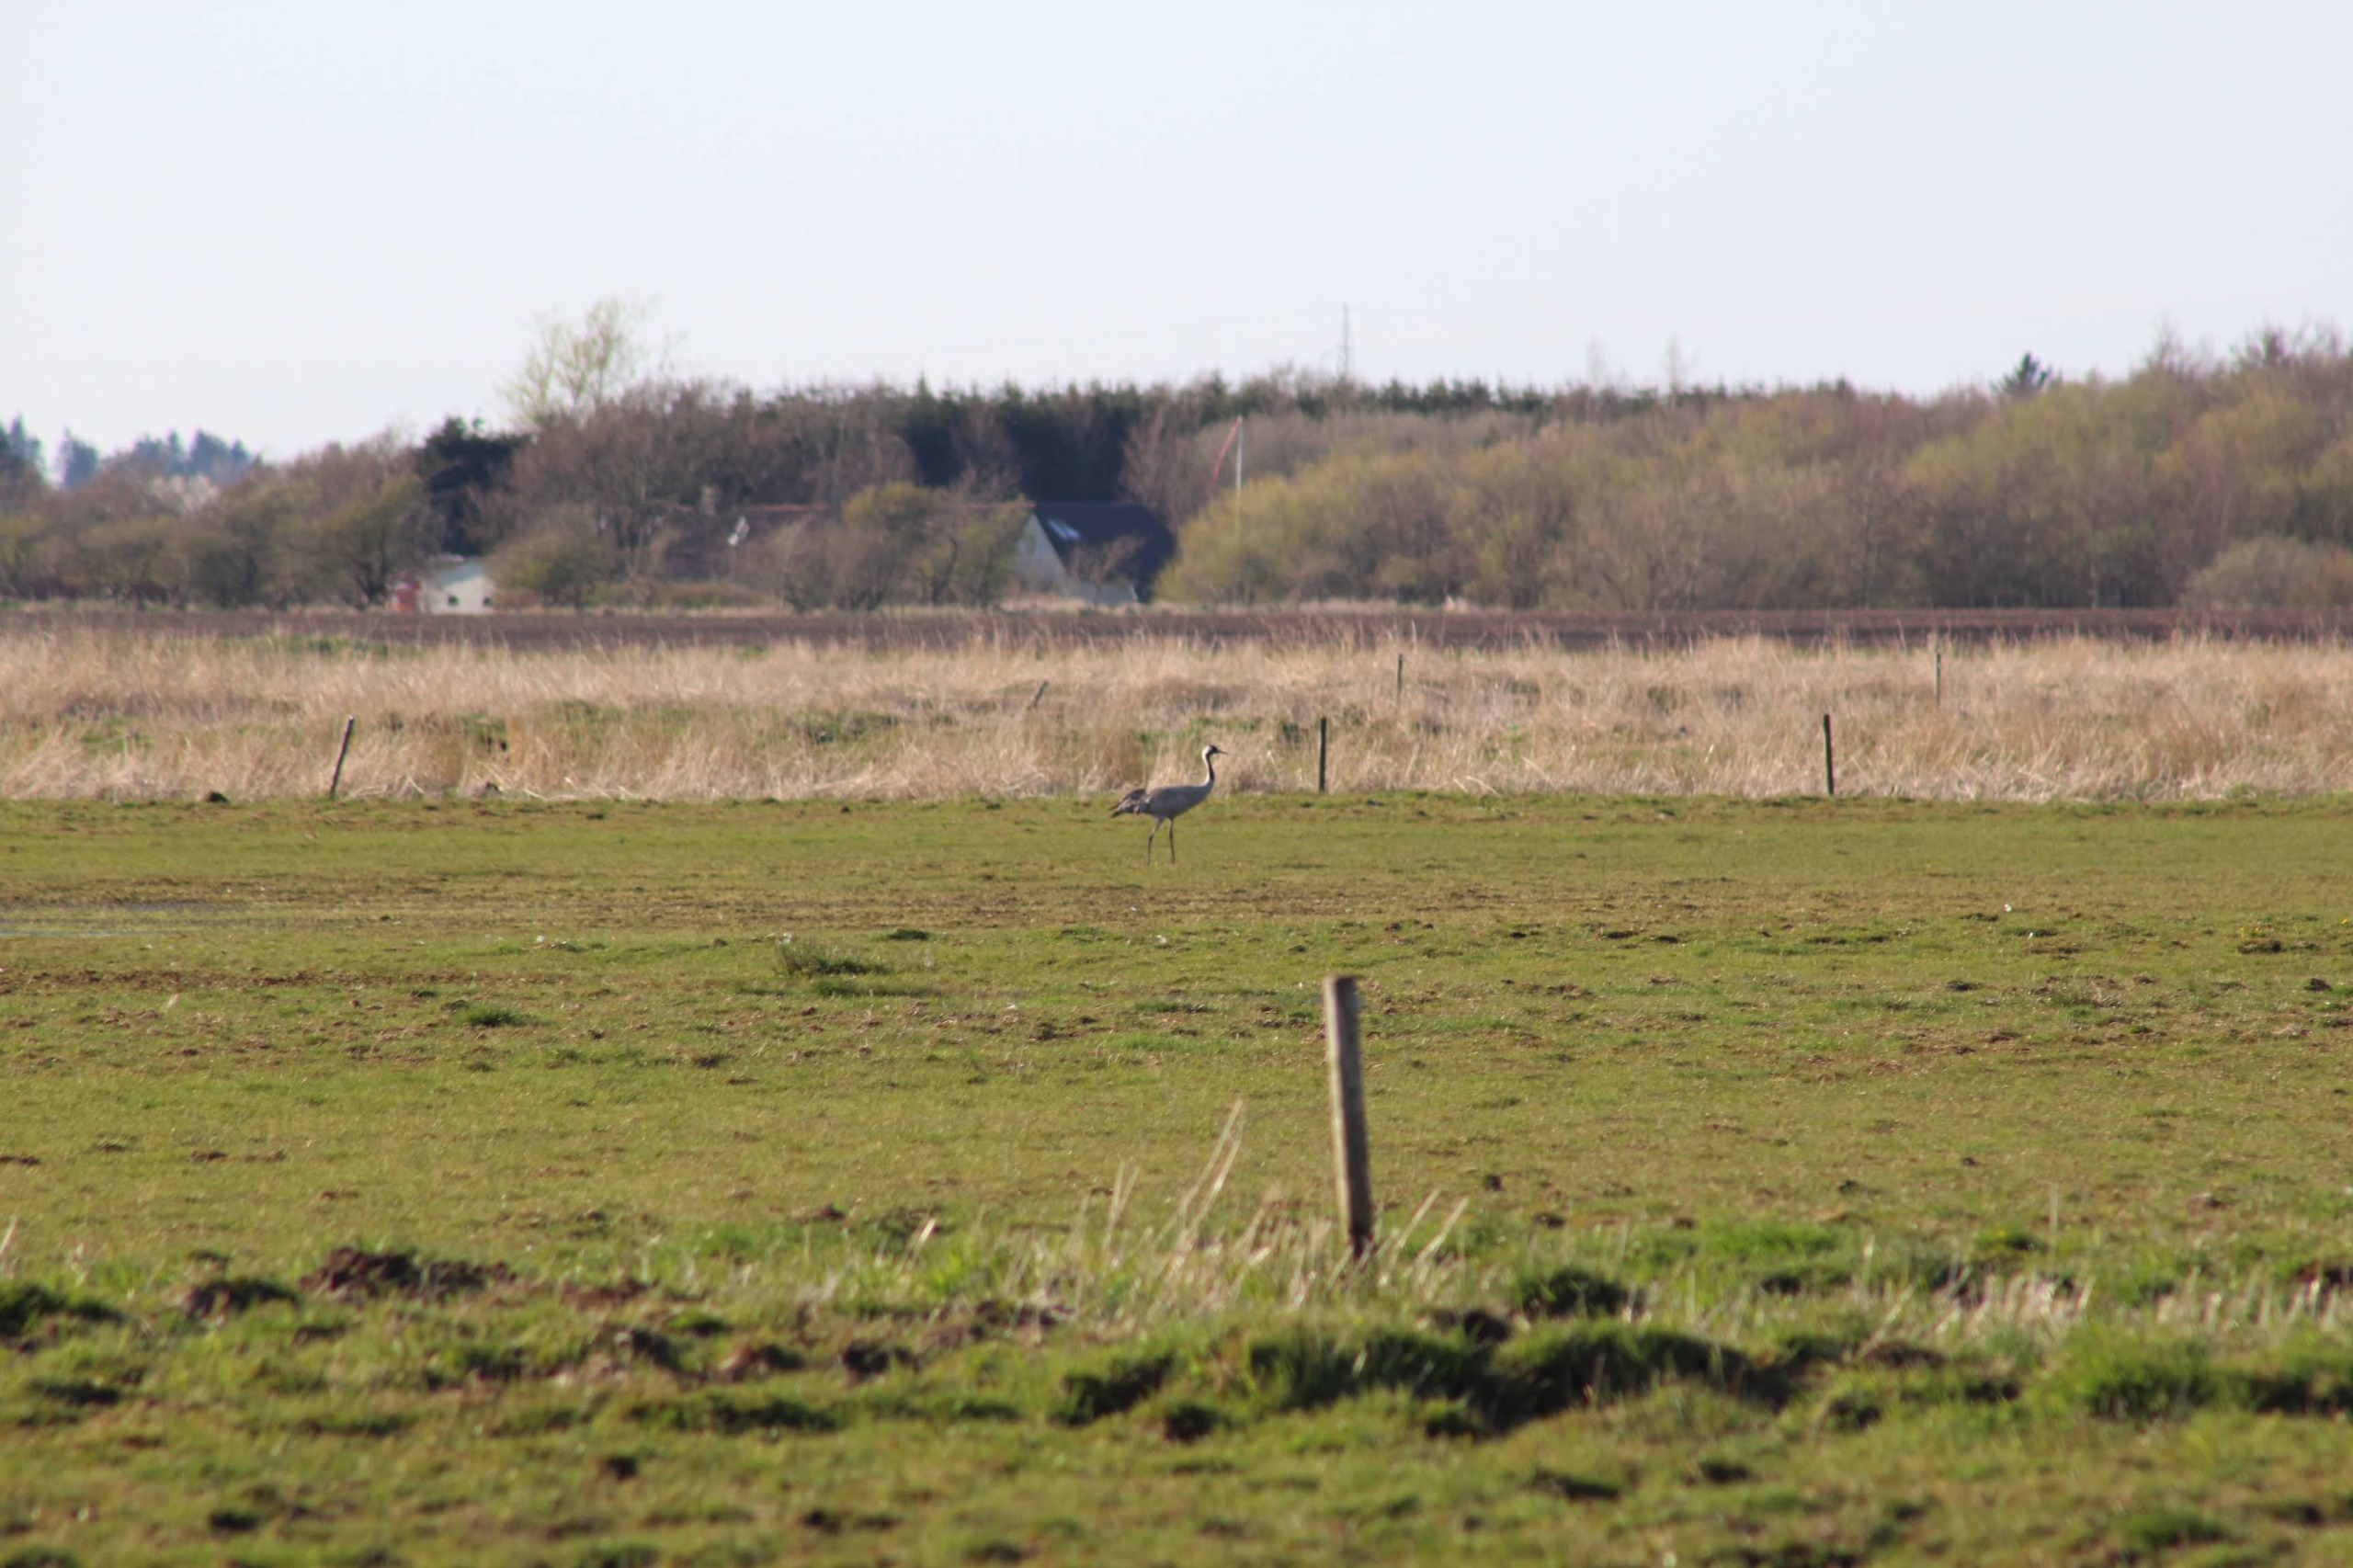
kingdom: Animalia
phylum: Chordata
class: Aves
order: Gruiformes
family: Gruidae
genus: Grus
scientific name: Grus grus
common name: Trane
